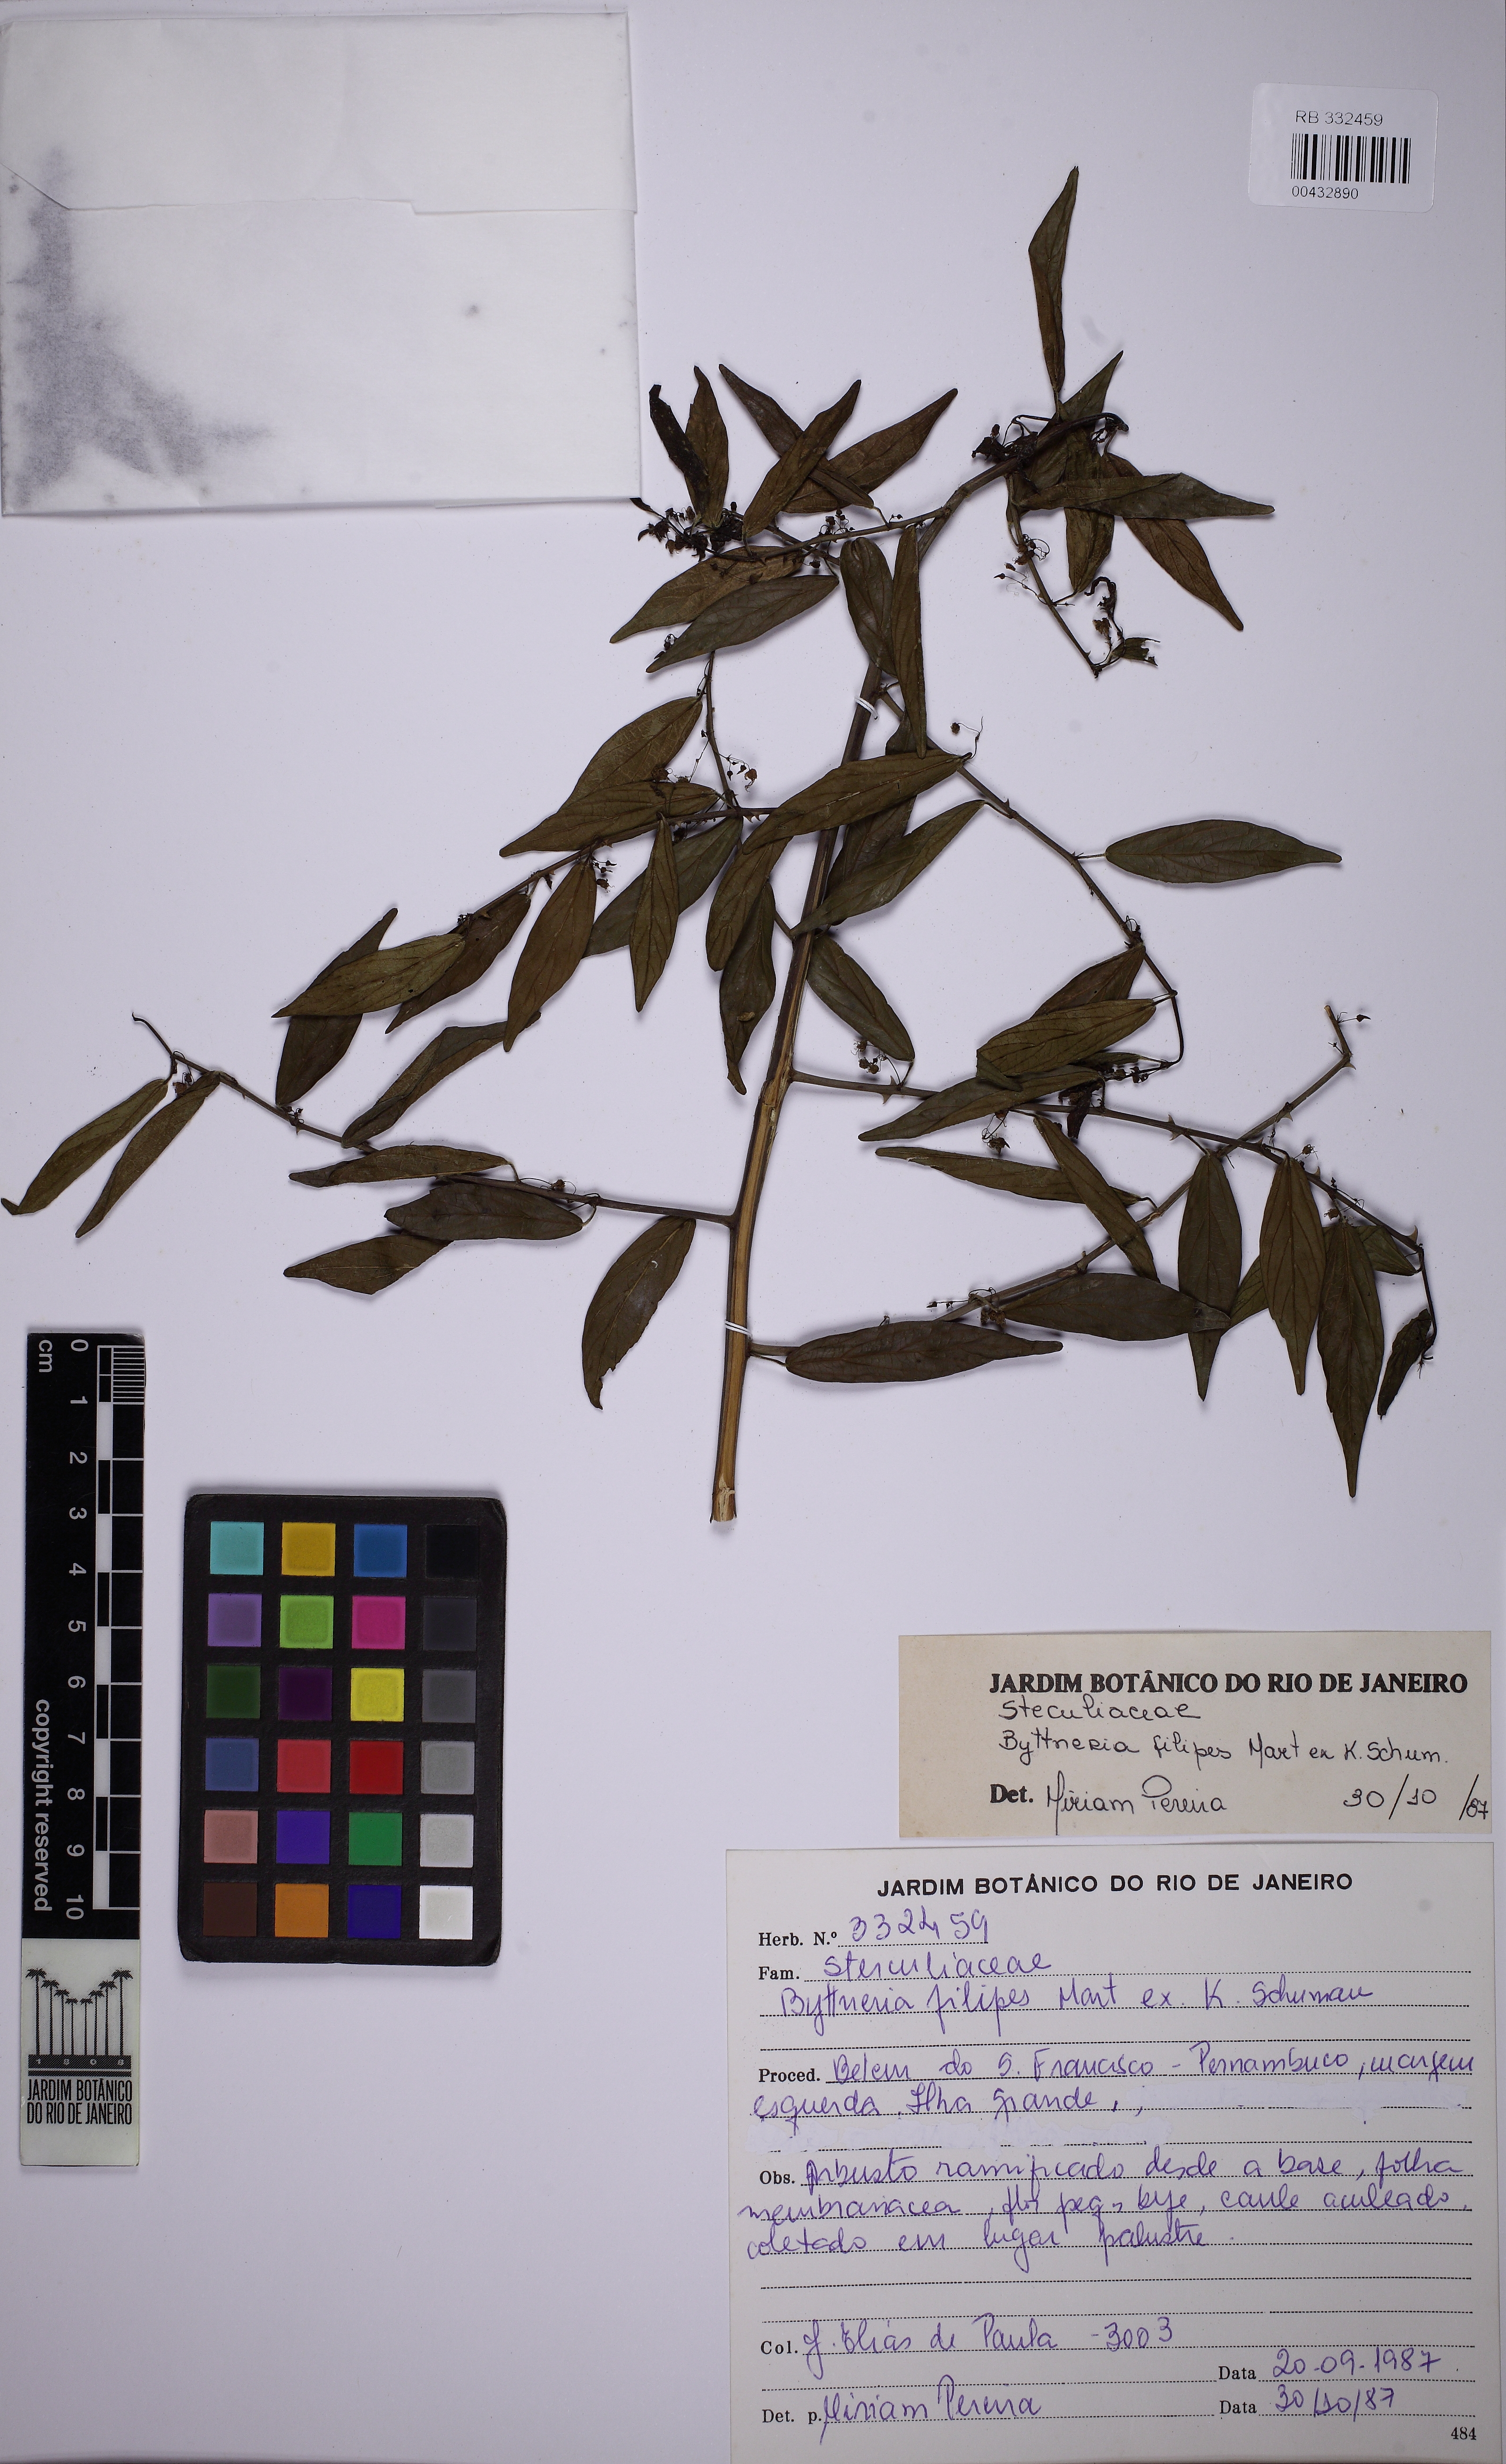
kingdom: Plantae
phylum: Tracheophyta
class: Magnoliopsida
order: Malvales
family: Malvaceae
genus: Byttneria
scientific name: Byttneria filipes
